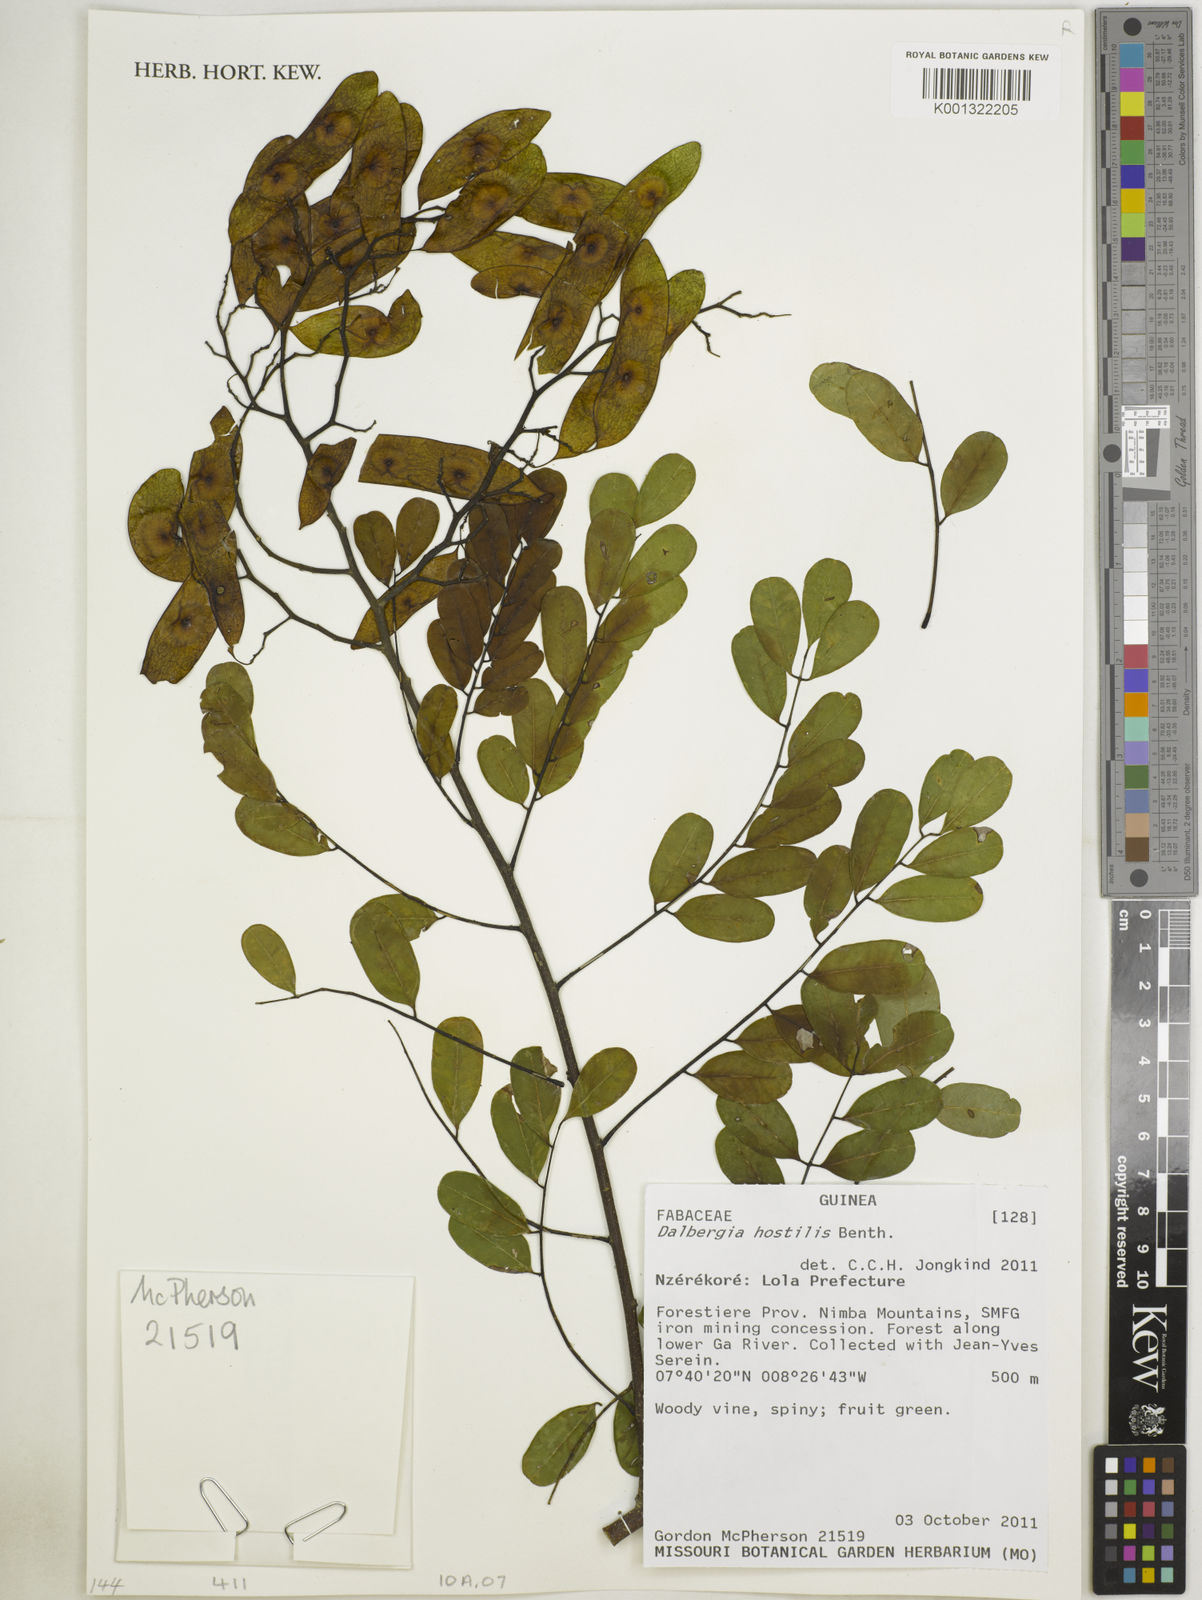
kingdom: Plantae
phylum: Tracheophyta
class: Magnoliopsida
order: Fabales
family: Fabaceae
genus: Dalbergia
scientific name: Dalbergia hostilis
